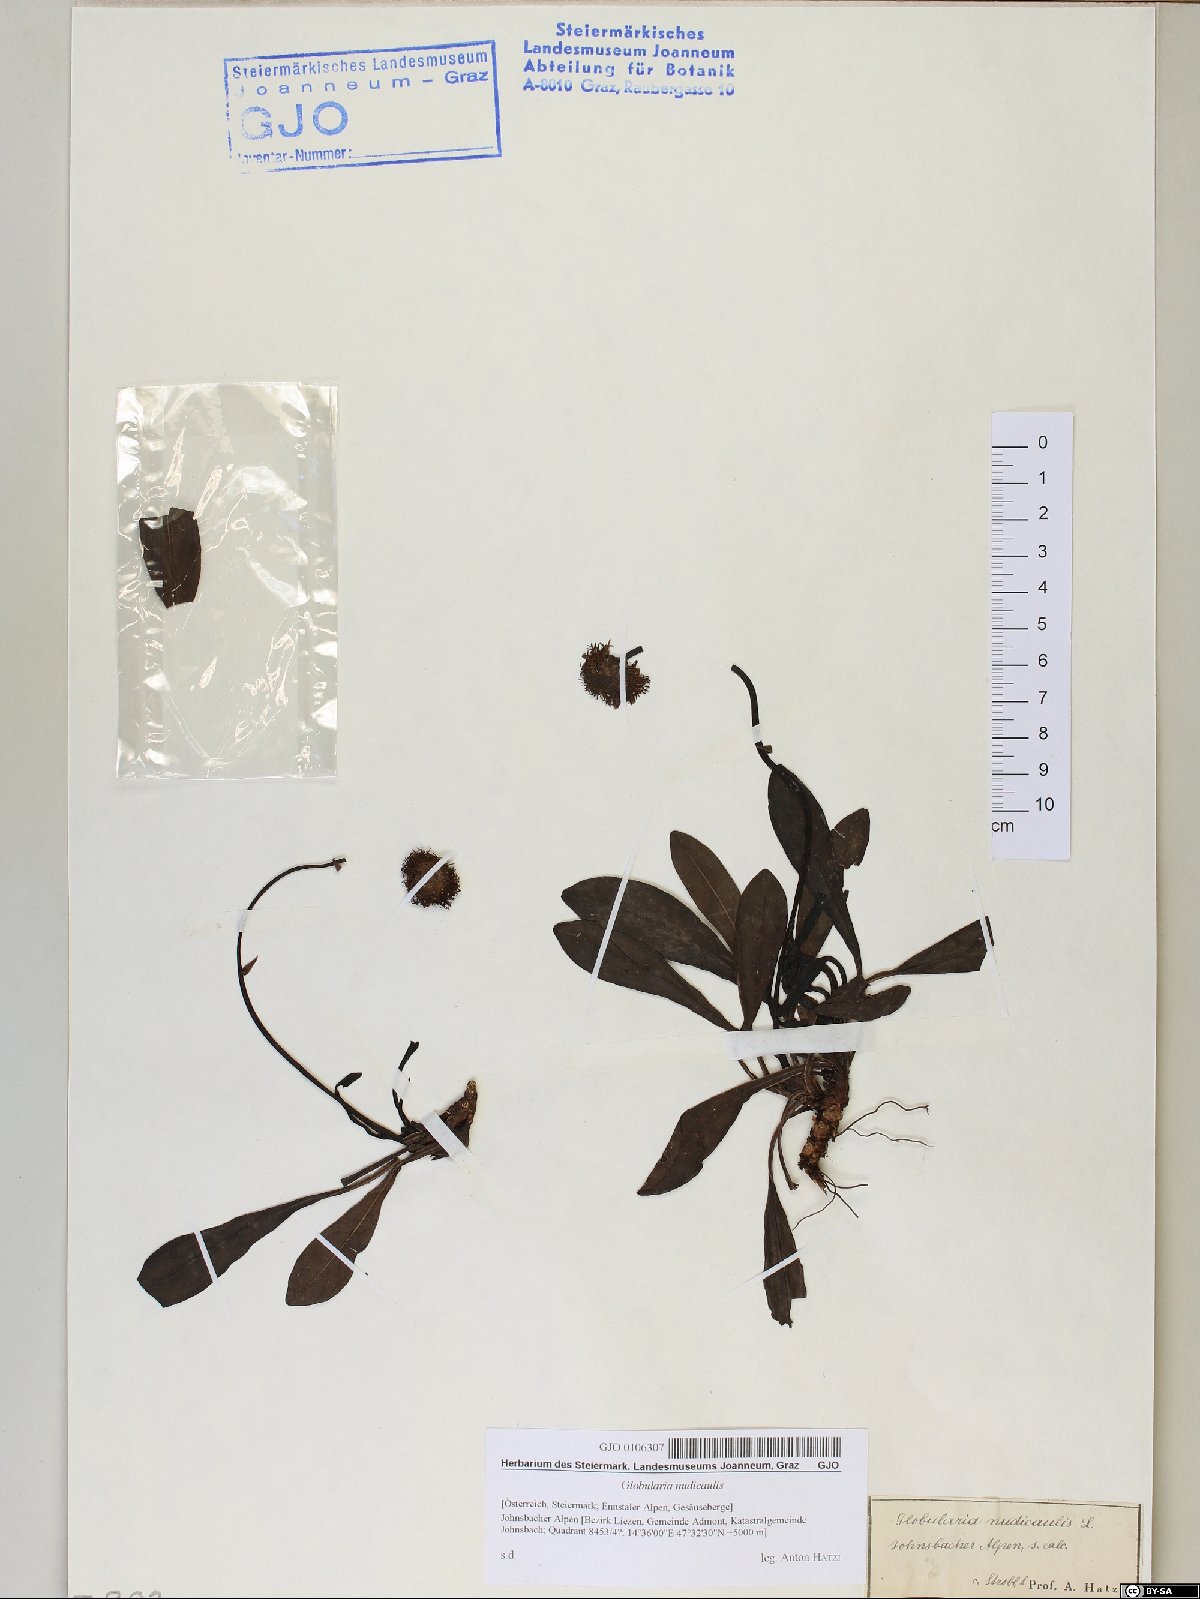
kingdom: Plantae
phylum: Tracheophyta
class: Magnoliopsida
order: Lamiales
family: Plantaginaceae
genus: Globularia
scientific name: Globularia nudicaulis
